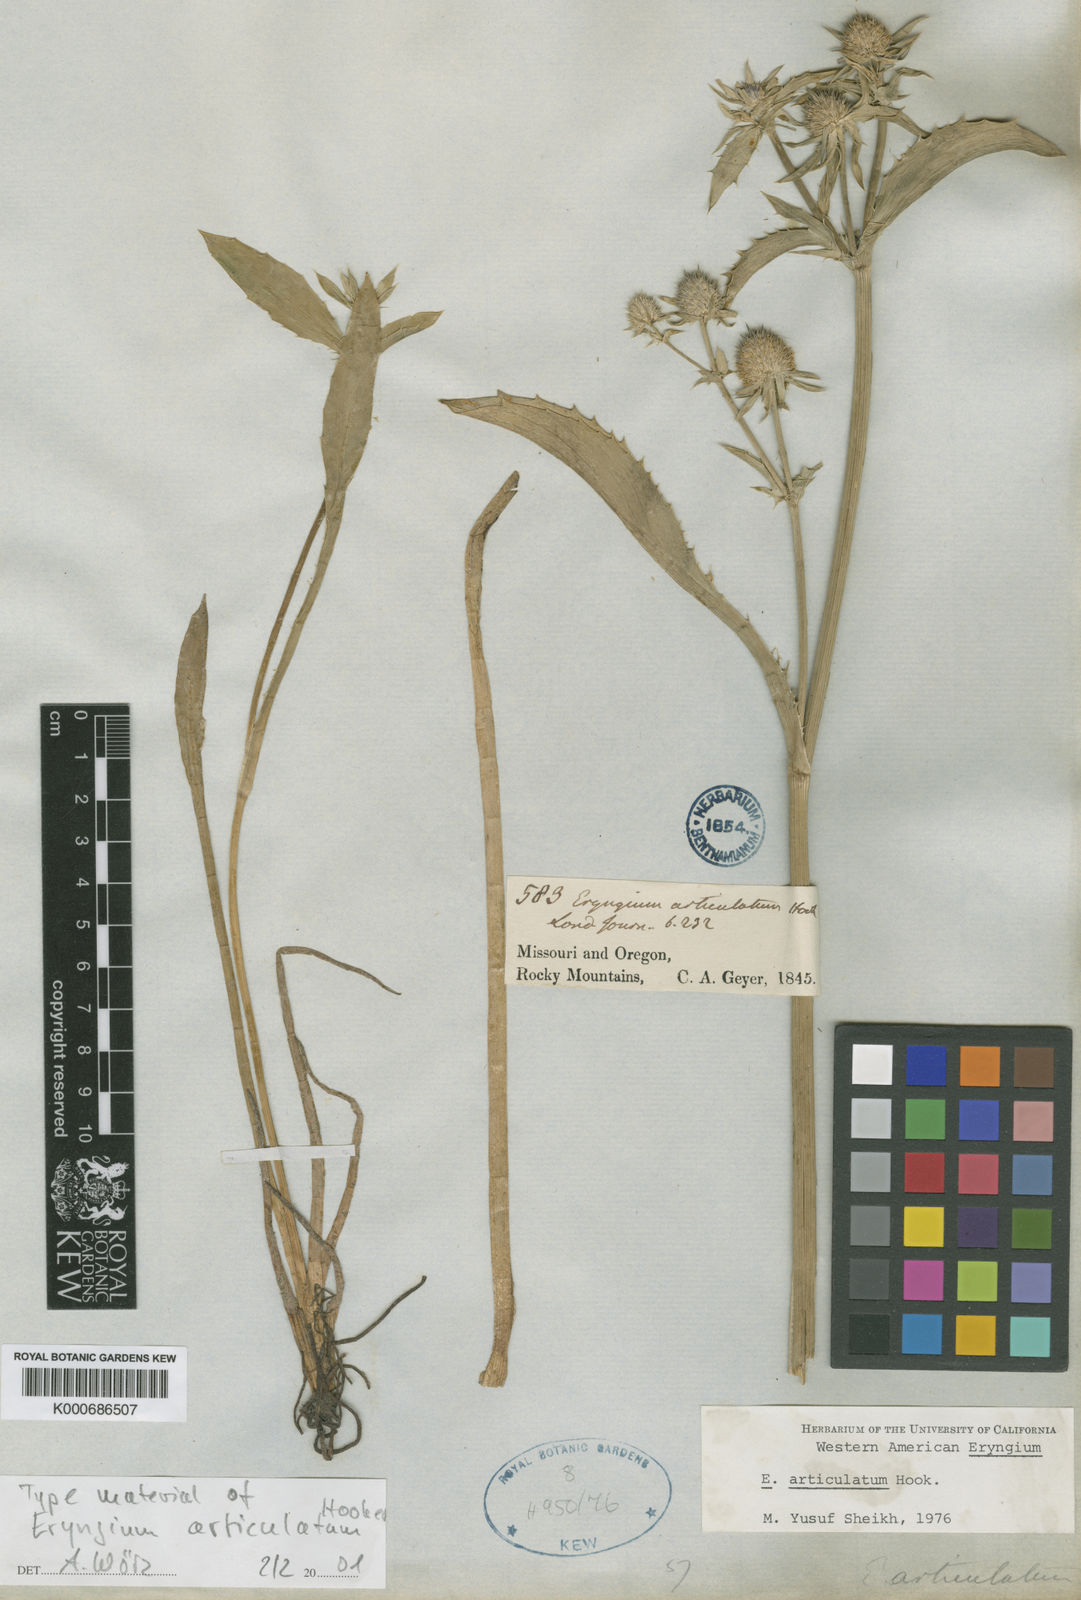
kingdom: Plantae
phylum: Tracheophyta
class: Magnoliopsida
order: Apiales
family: Apiaceae
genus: Eryngium
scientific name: Eryngium articulatum
